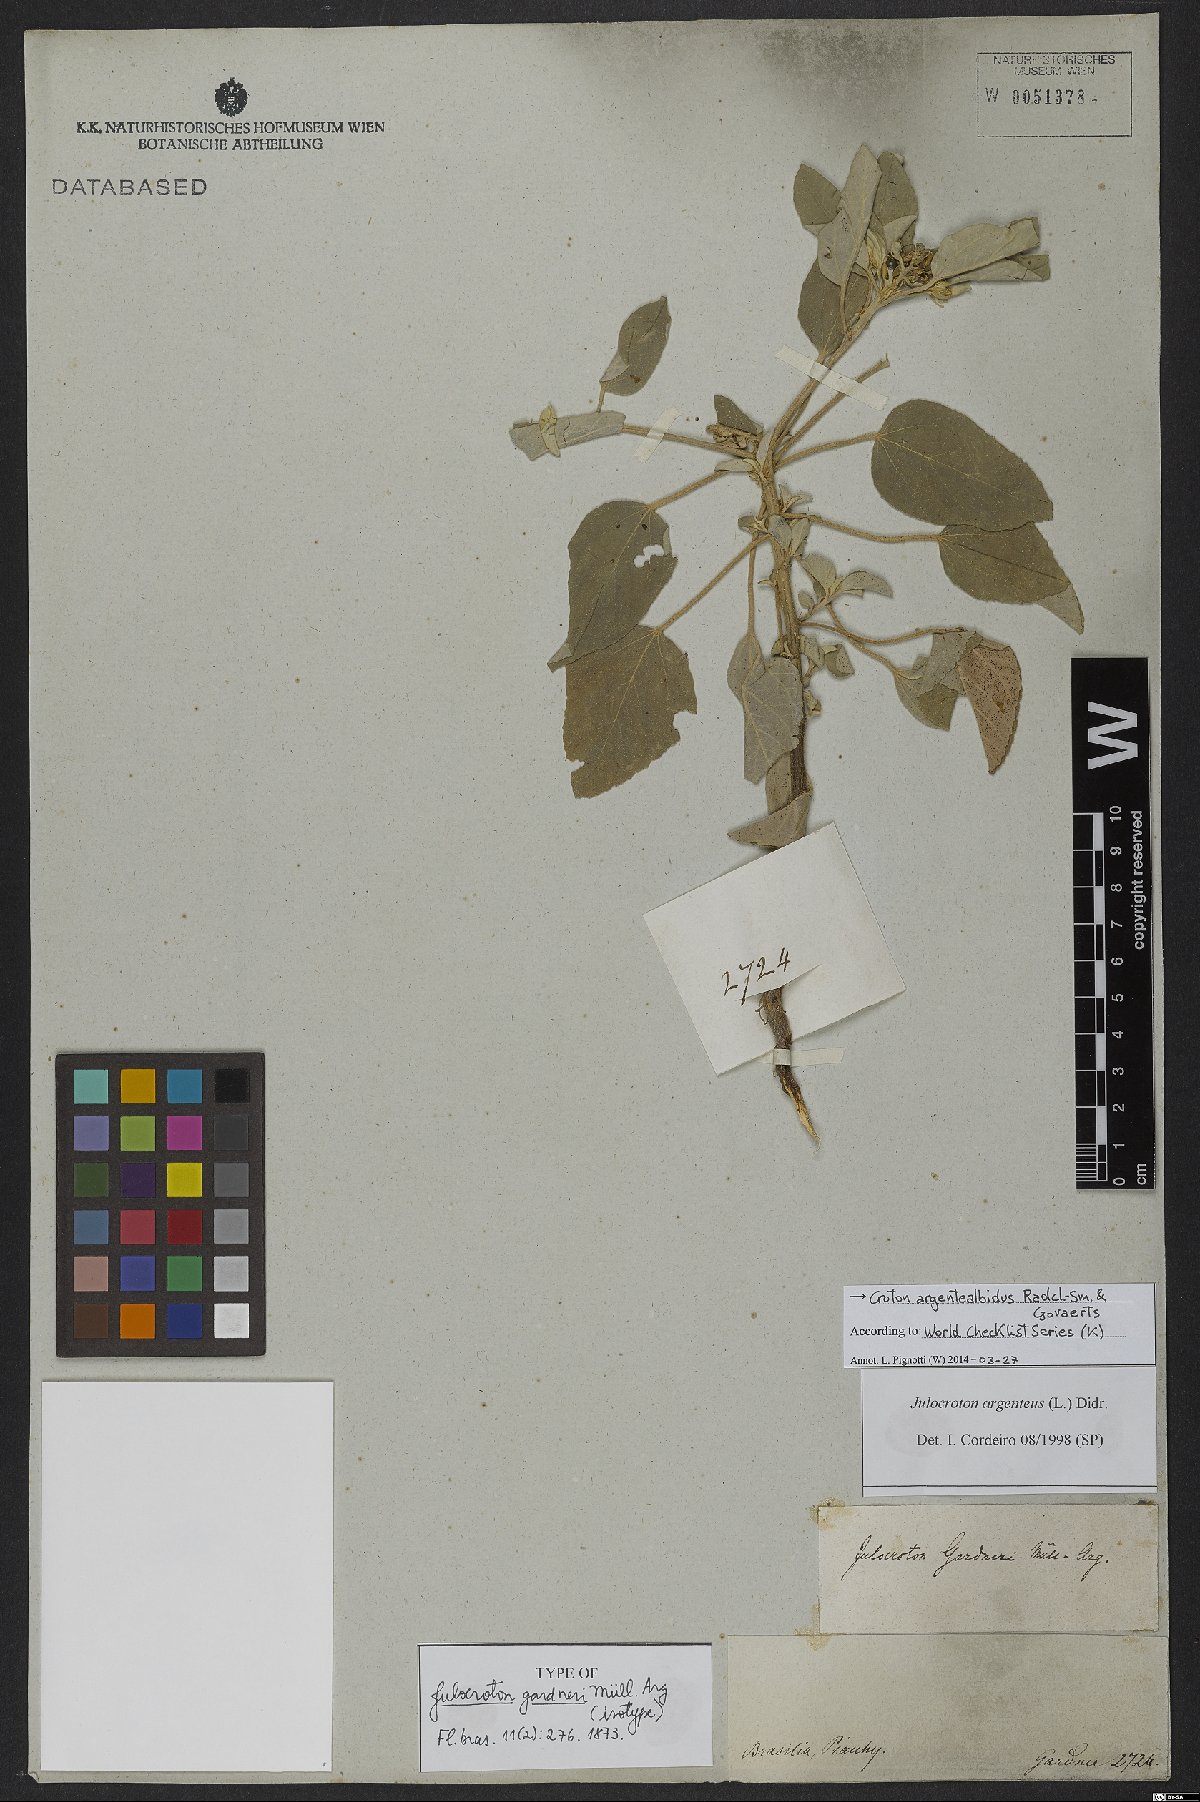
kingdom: Plantae
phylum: Tracheophyta
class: Magnoliopsida
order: Malpighiales
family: Euphorbiaceae
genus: Croton
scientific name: Croton argentealbidus
